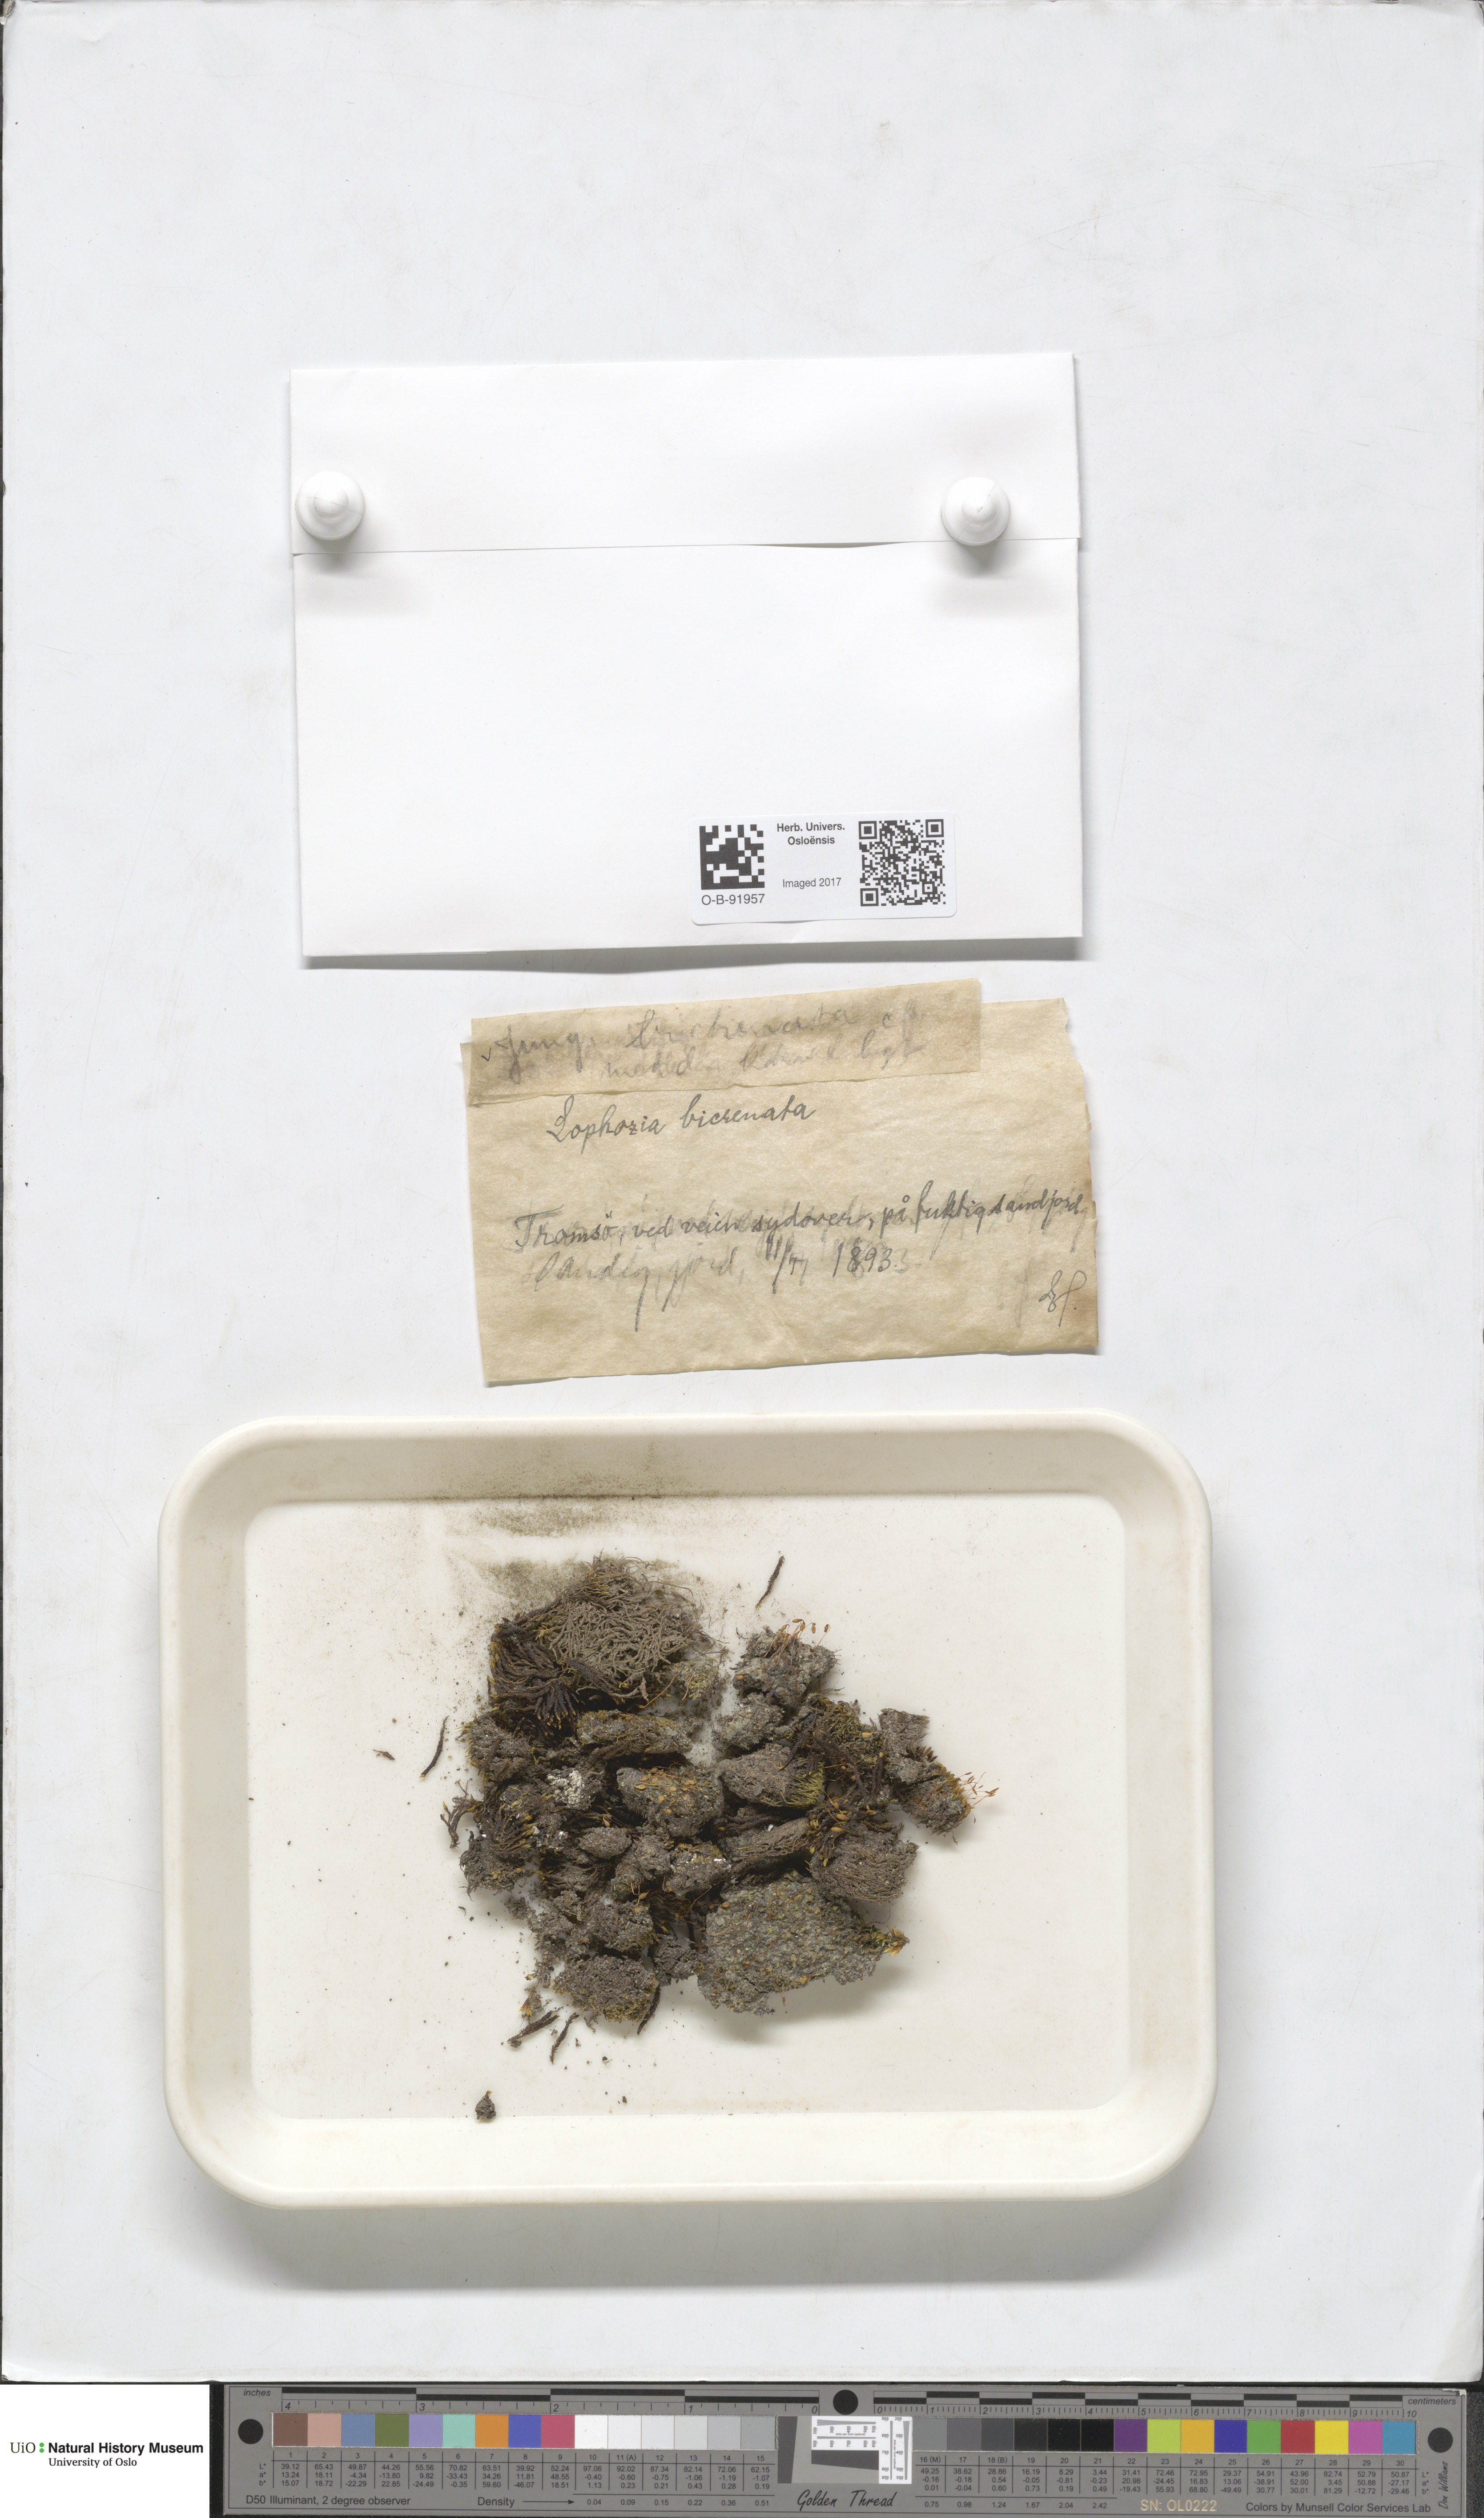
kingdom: Plantae
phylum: Marchantiophyta
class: Jungermanniopsida
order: Jungermanniales
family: Anastrophyllaceae
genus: Isopaches
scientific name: Isopaches bicrenatus
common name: Lesser notchwort
